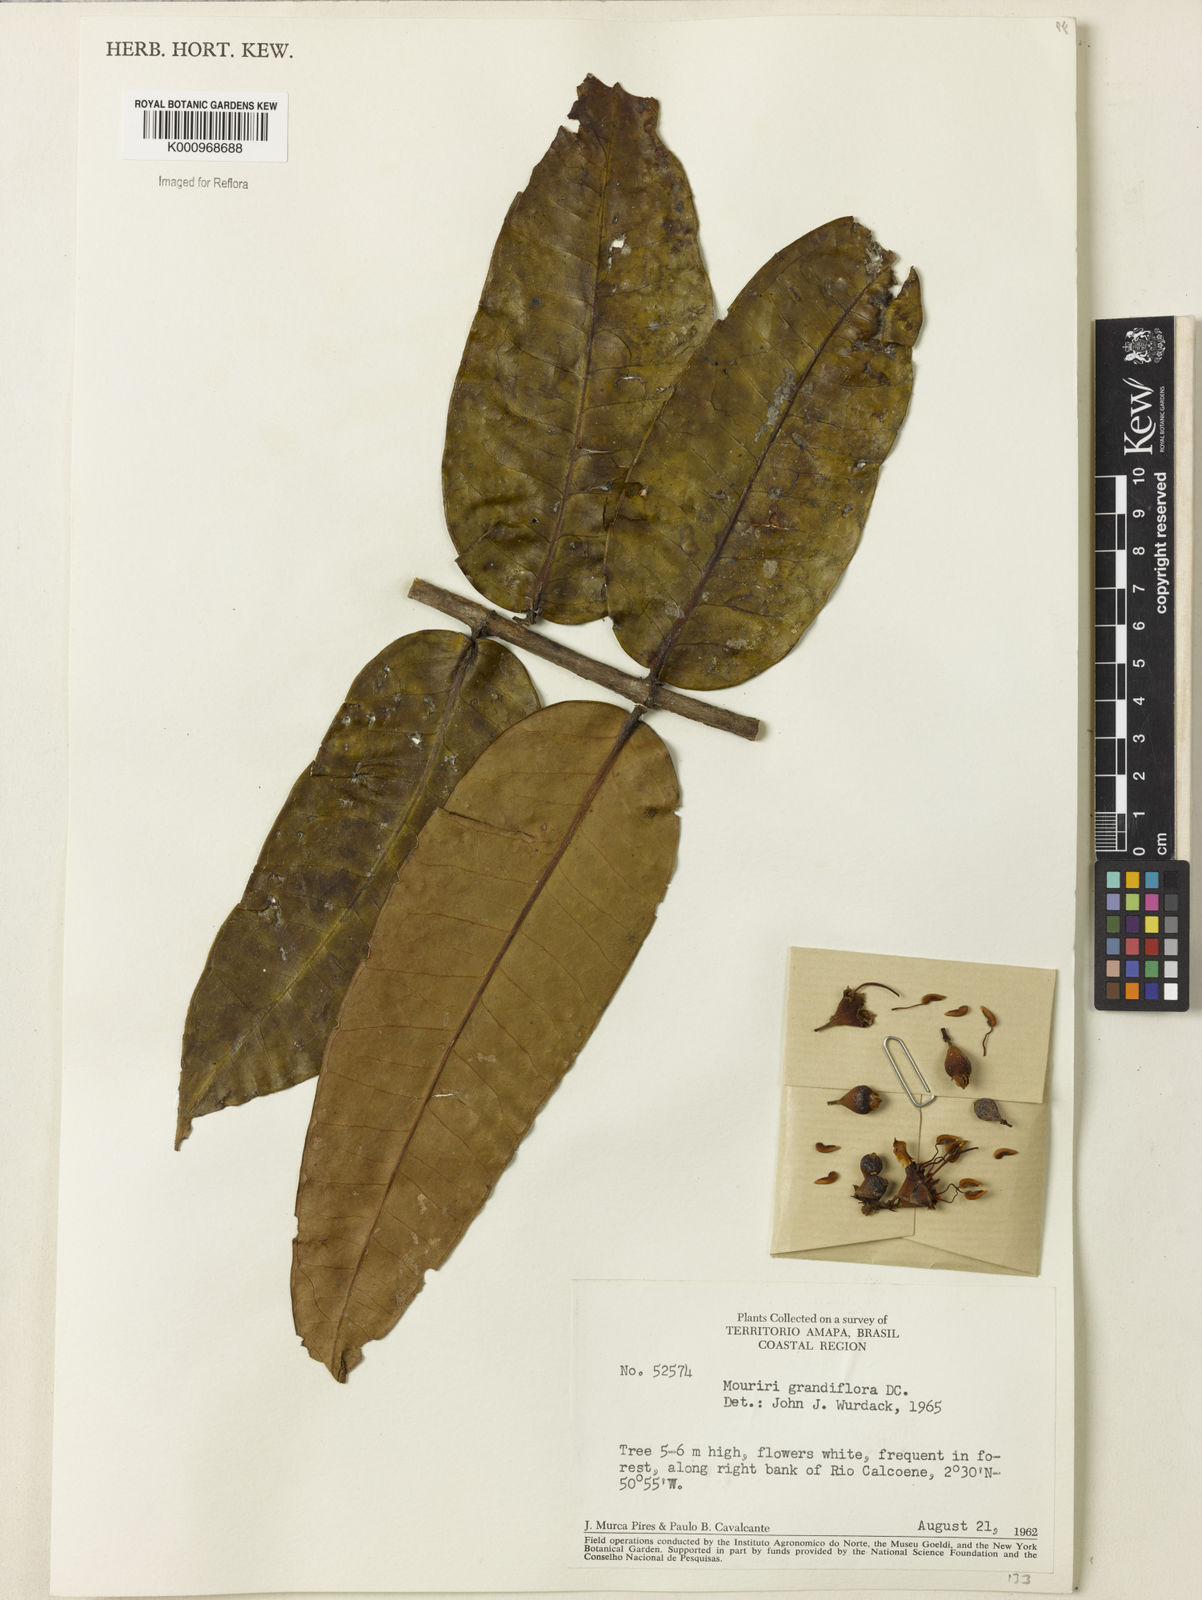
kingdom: Plantae
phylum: Tracheophyta
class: Magnoliopsida
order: Myrtales
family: Melastomataceae
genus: Mouriri
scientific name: Mouriri grandiflora
